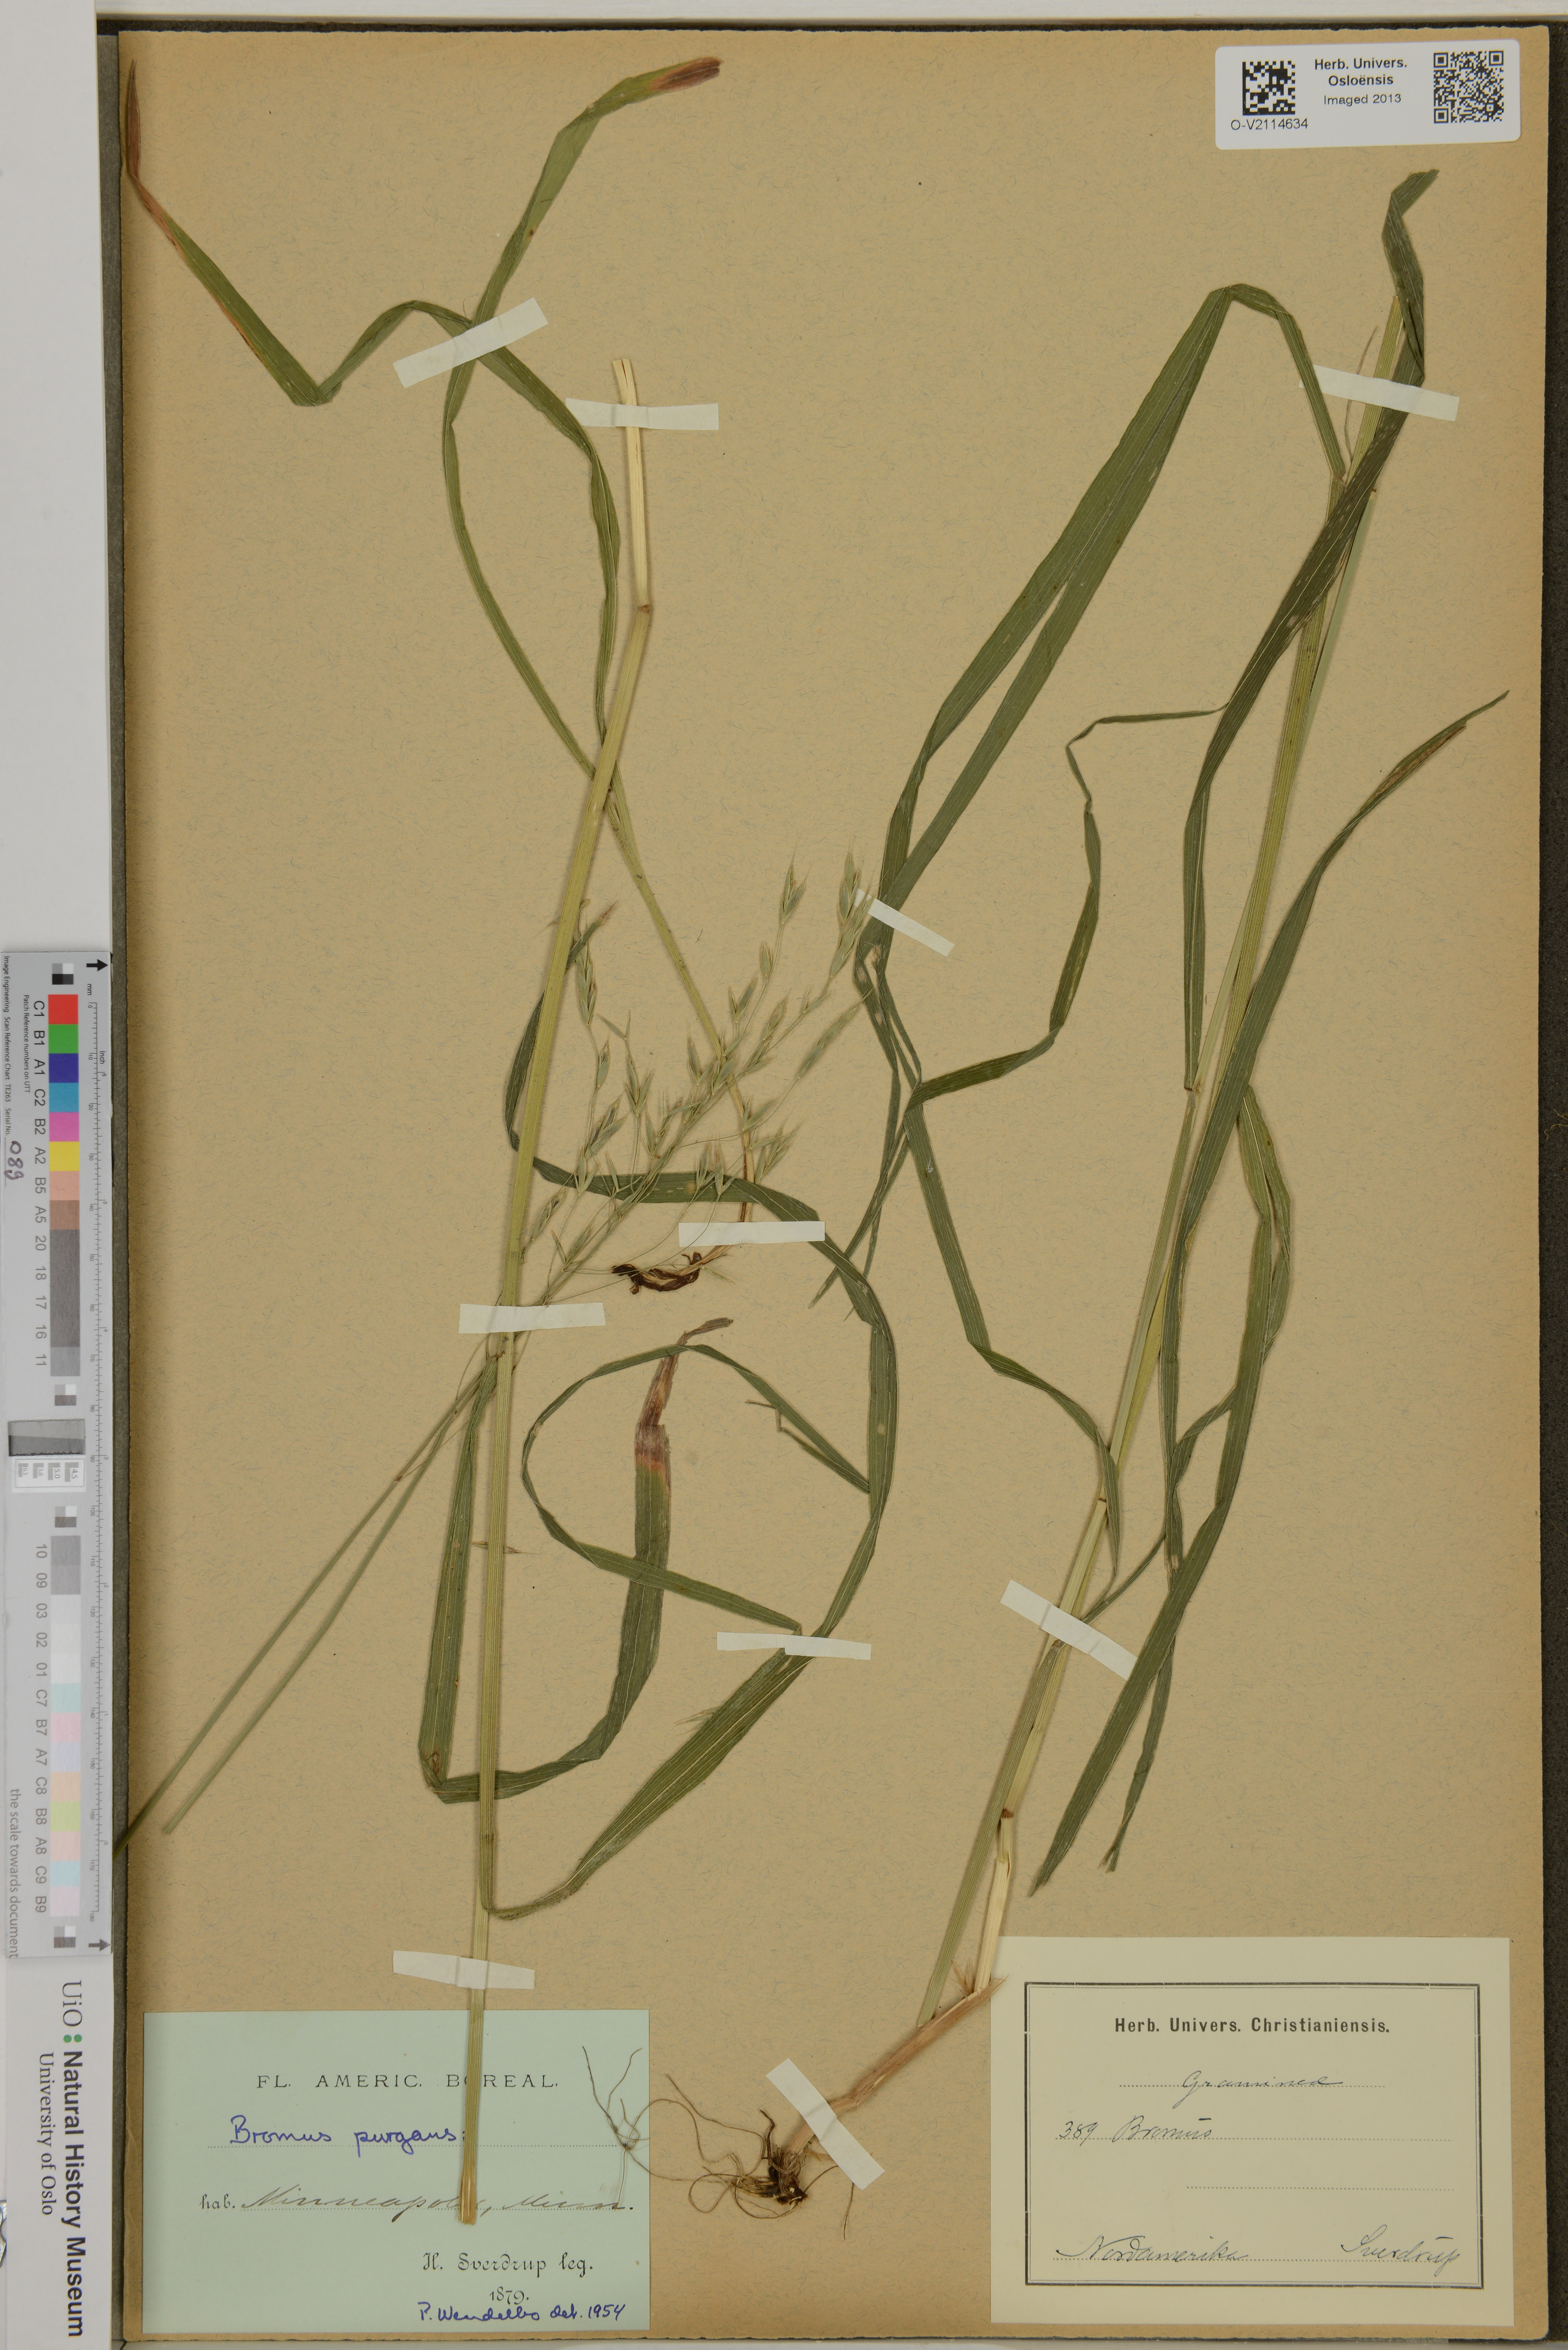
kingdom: Plantae
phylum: Tracheophyta
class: Liliopsida
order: Poales
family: Poaceae
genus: Bromus
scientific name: Bromus pubescens
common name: Hairy wood brome grass
